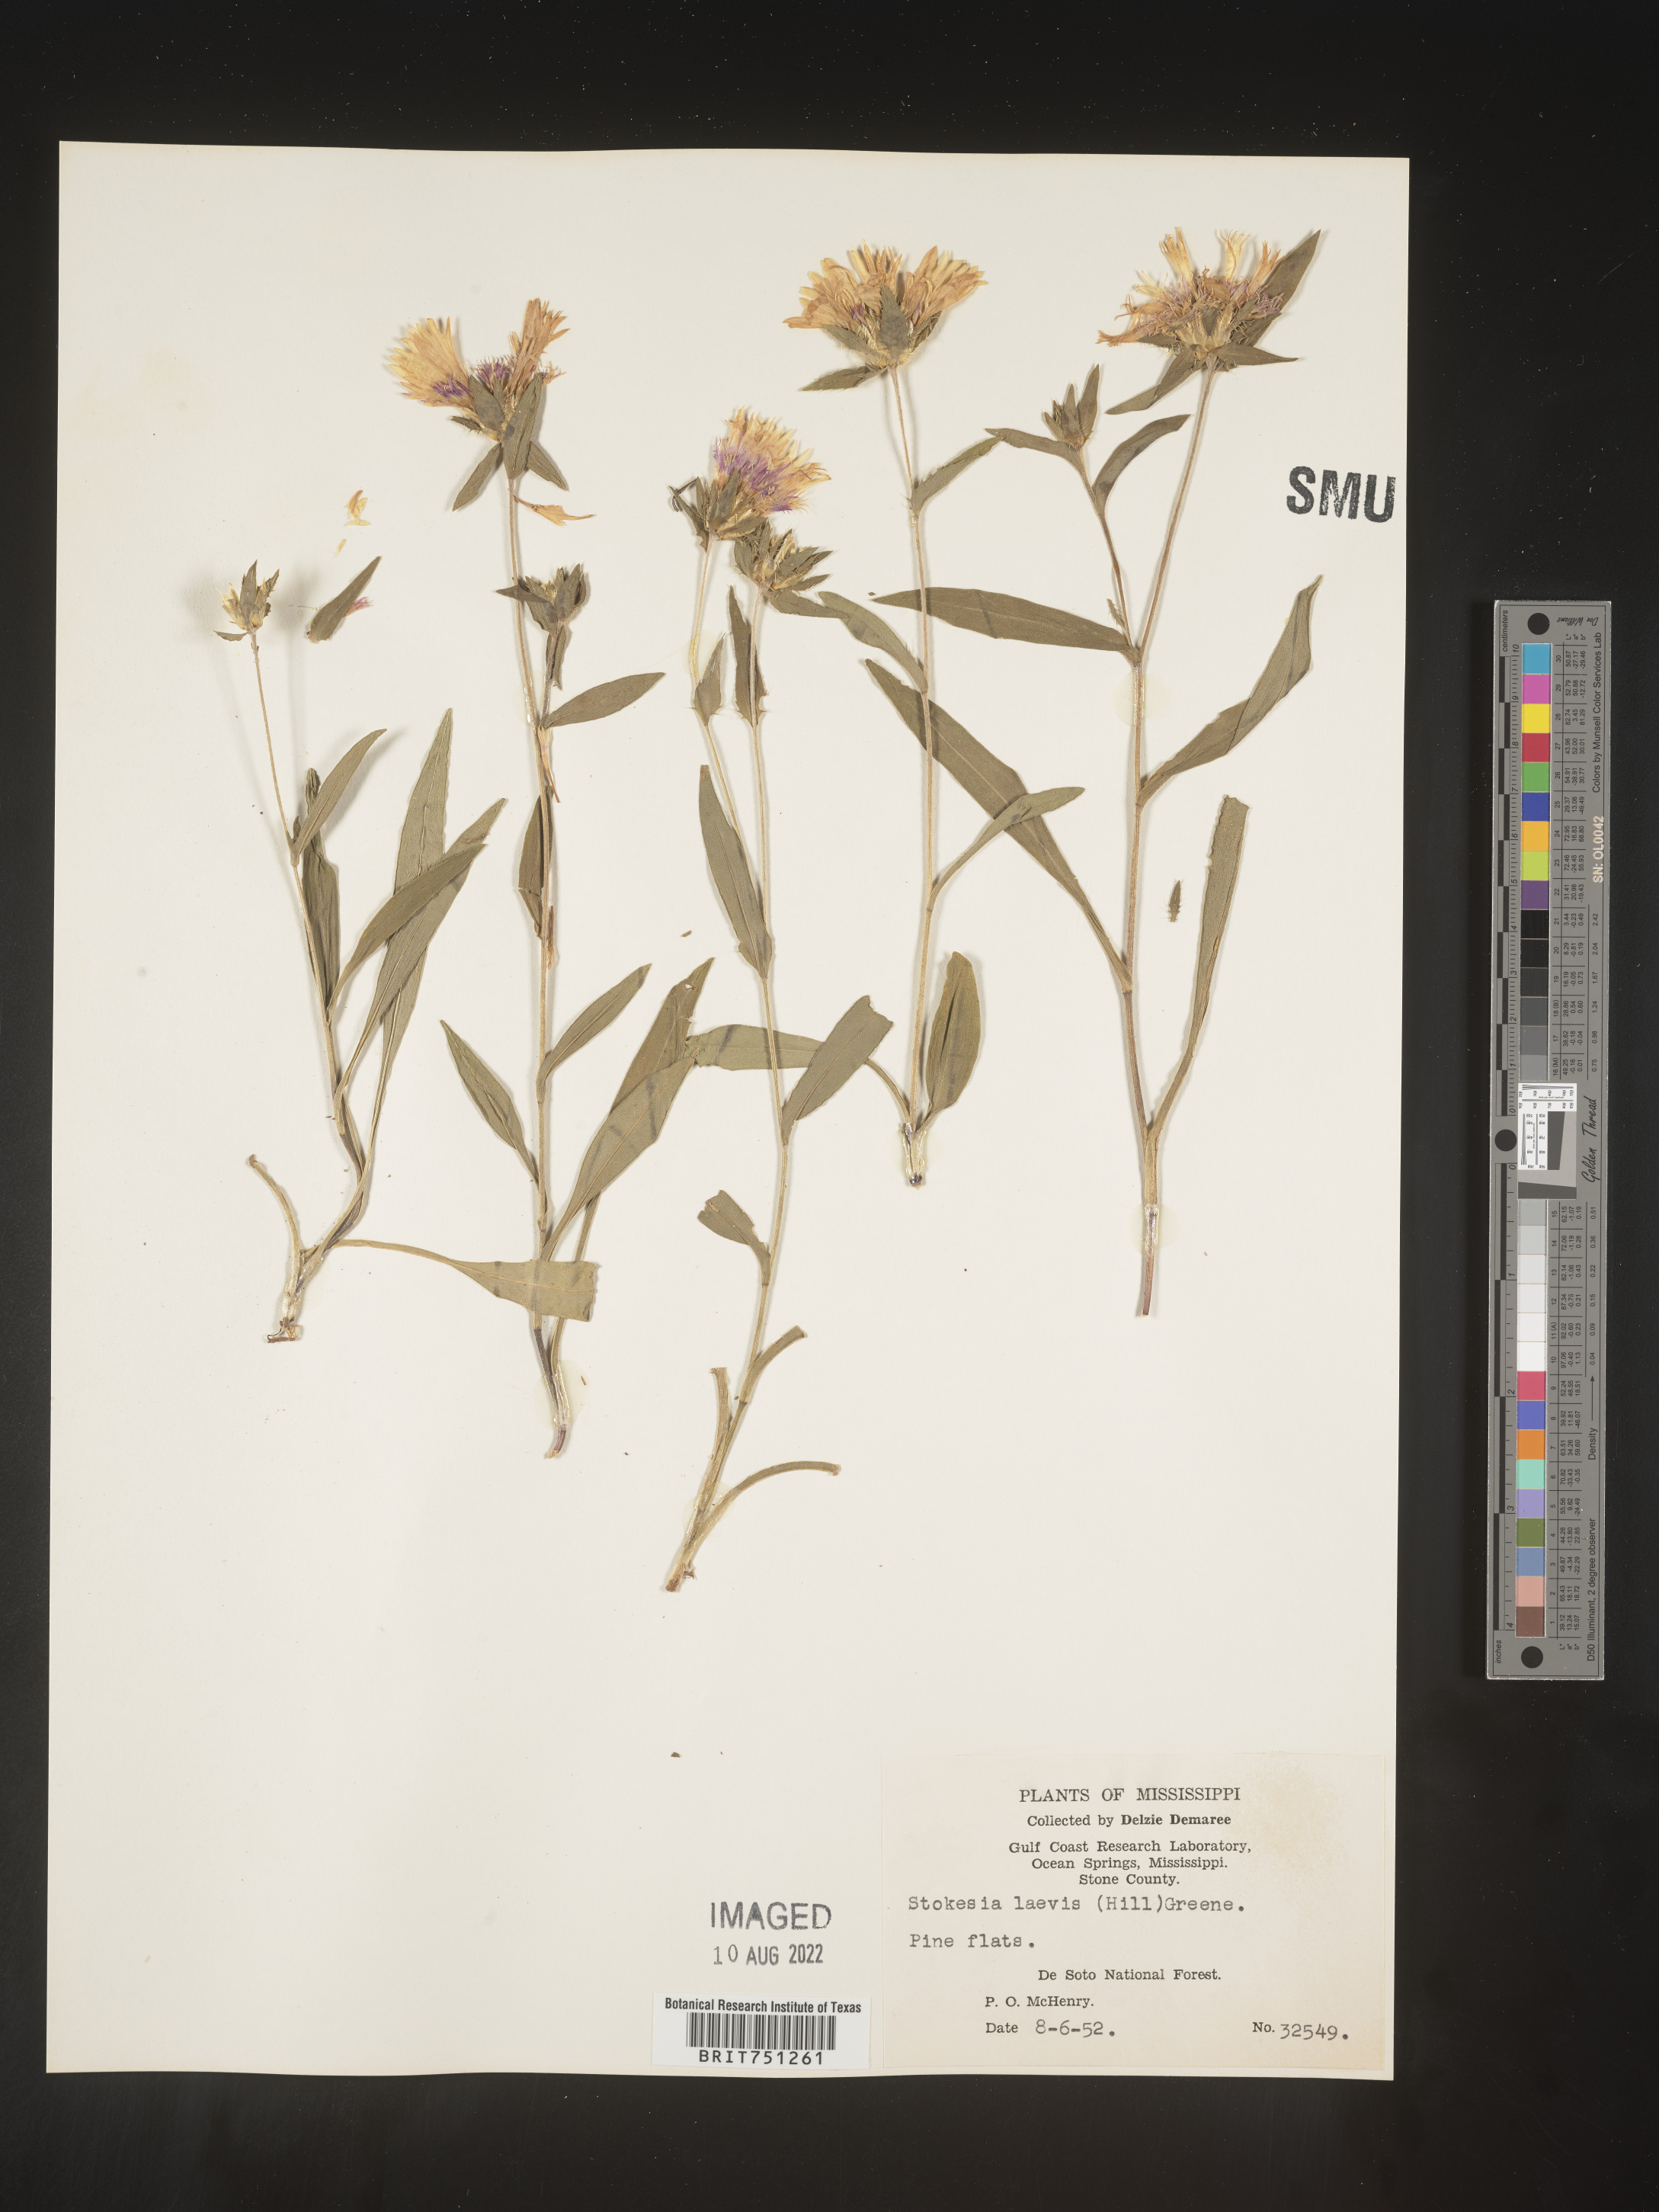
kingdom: Plantae
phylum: Tracheophyta
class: Magnoliopsida
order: Asterales
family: Asteraceae
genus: Stokesia
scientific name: Stokesia
